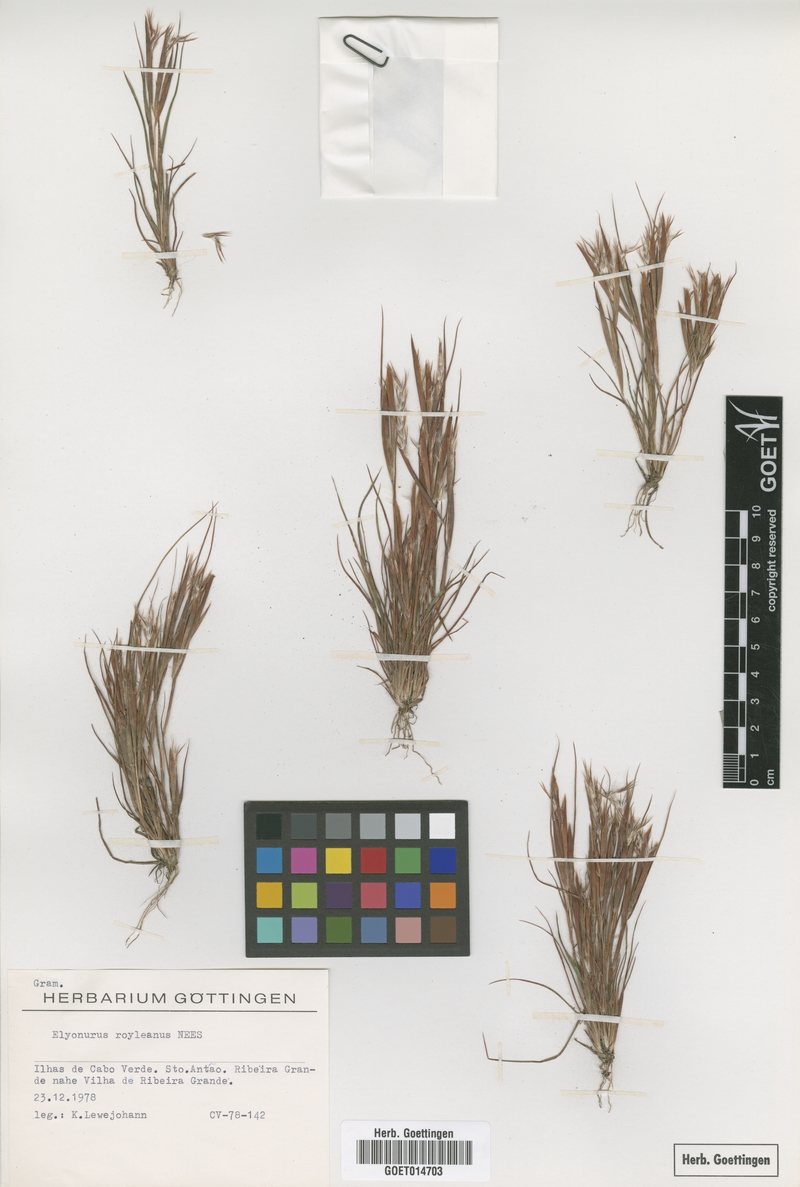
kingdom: Plantae
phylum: Tracheophyta
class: Liliopsida
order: Poales
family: Poaceae
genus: Elionurus
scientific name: Elionurus royleanus
